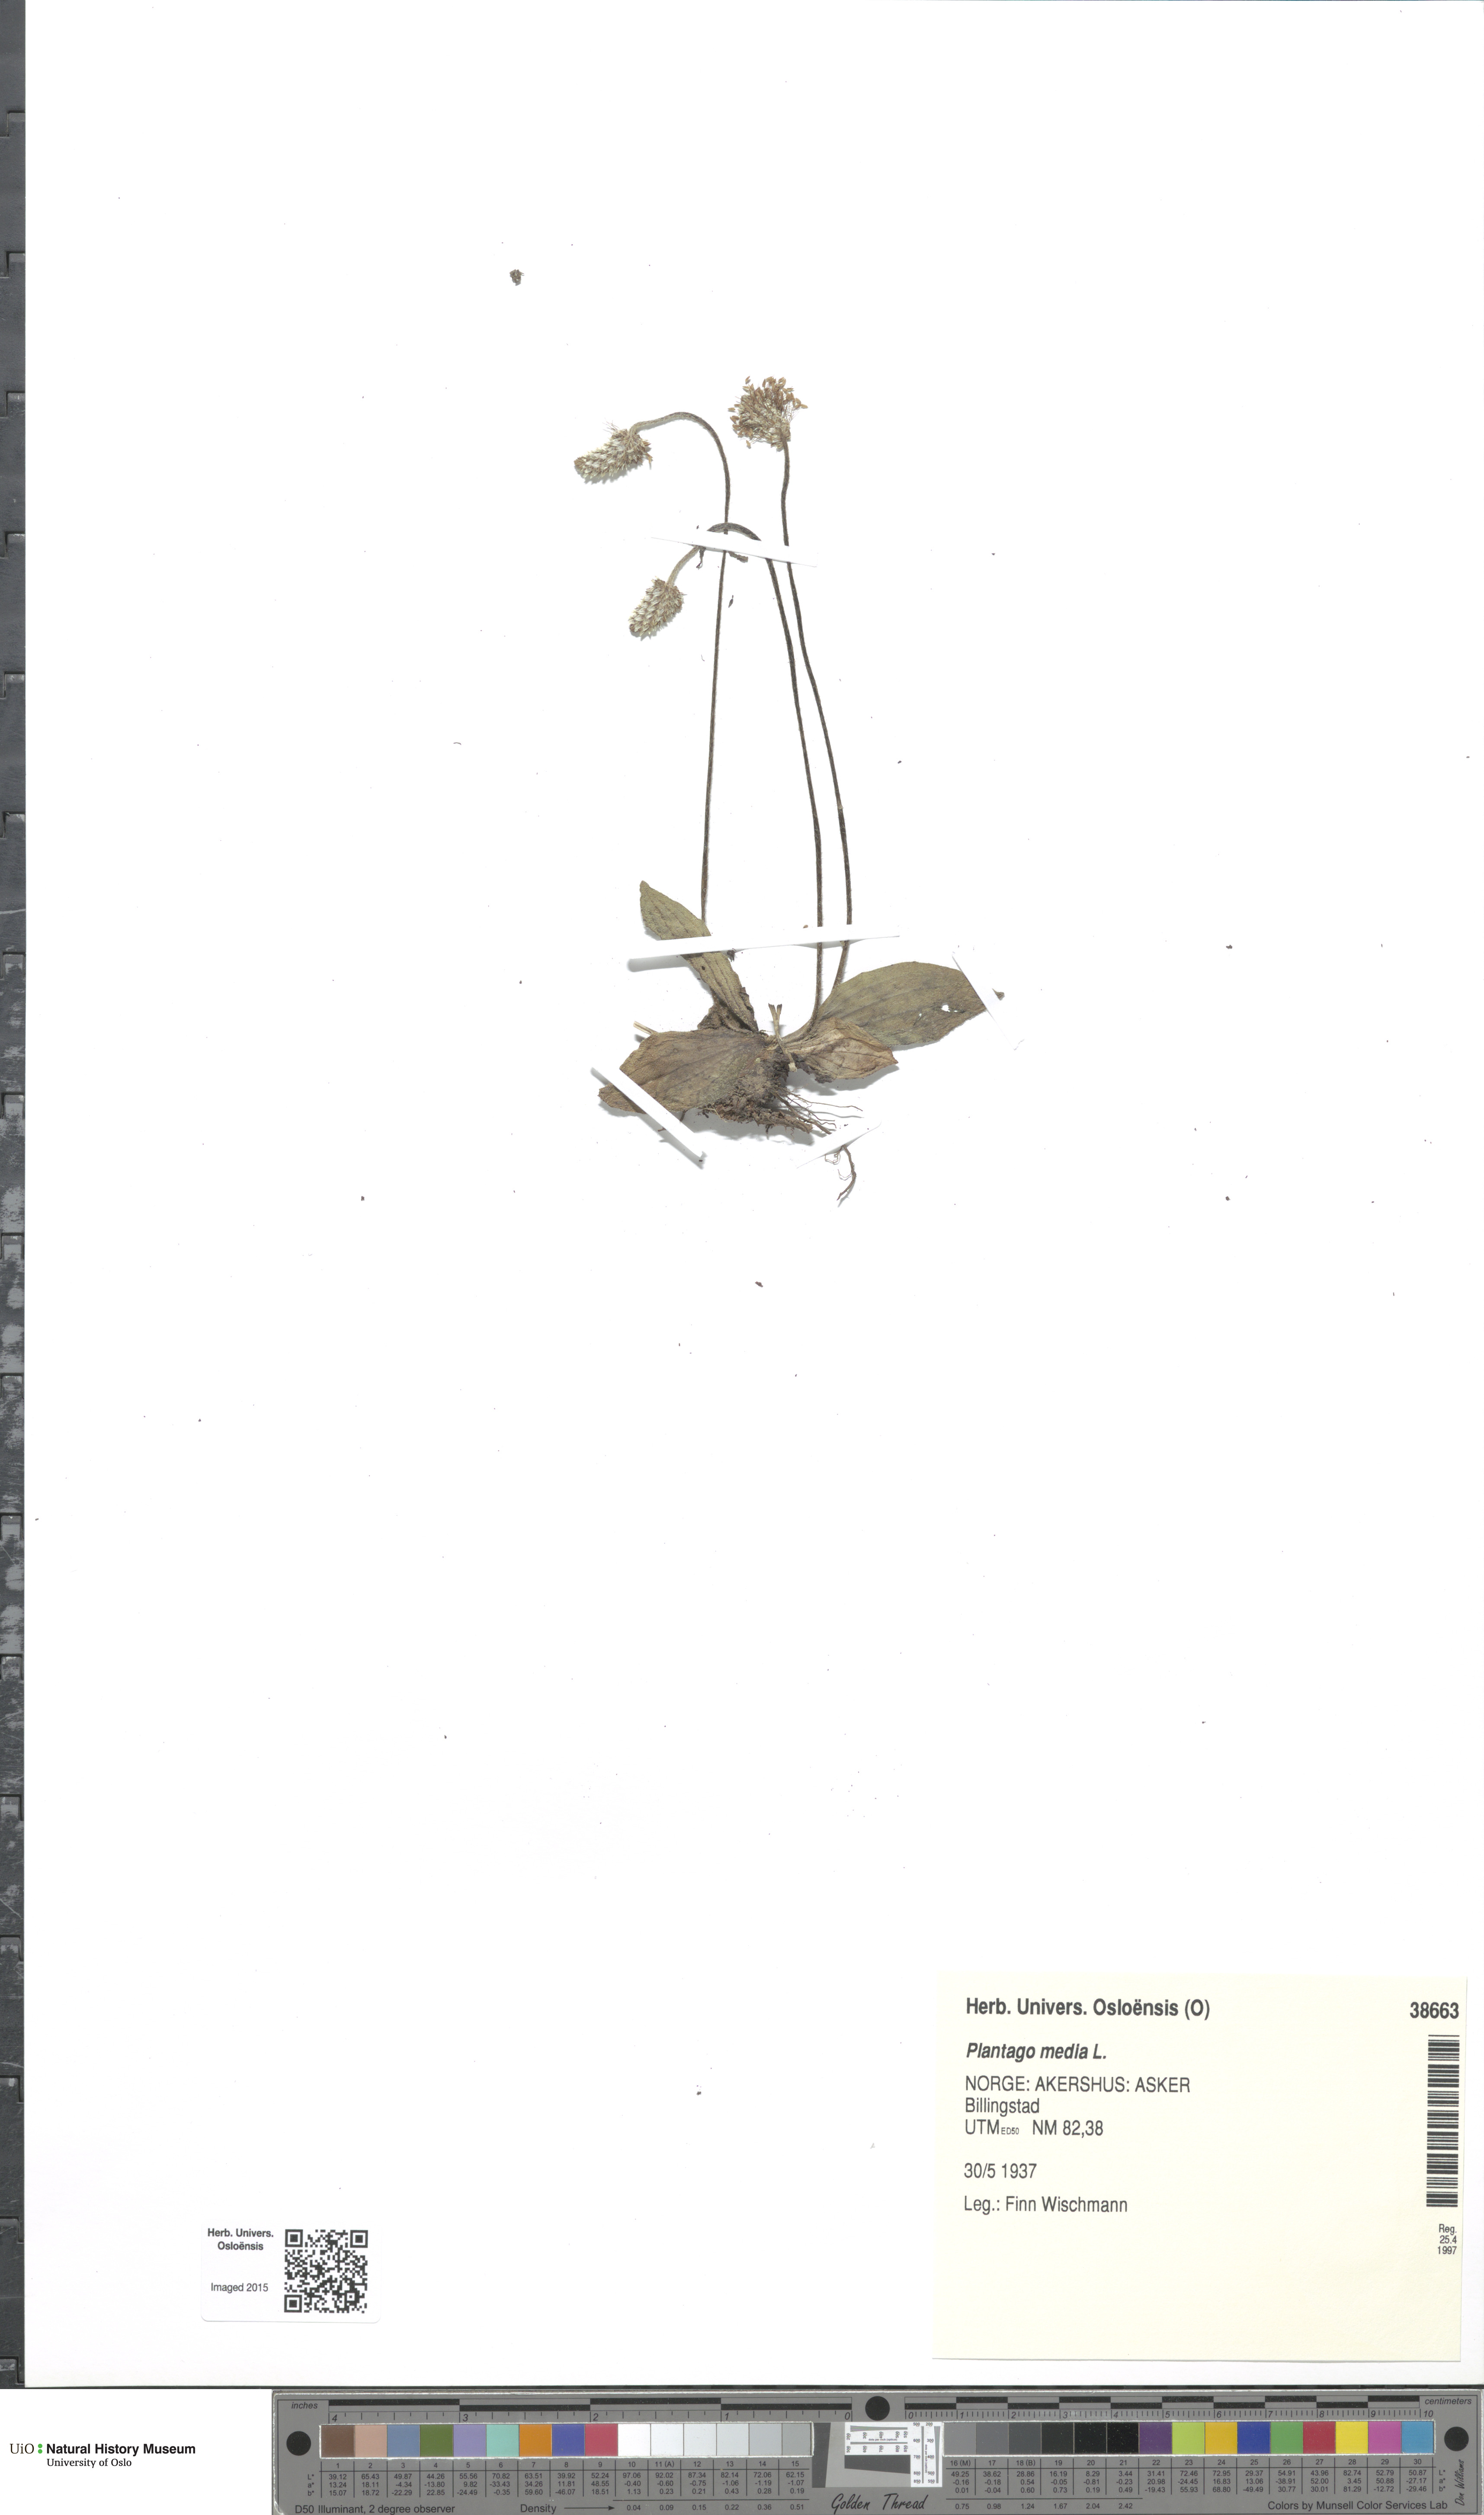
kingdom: Plantae
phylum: Tracheophyta
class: Magnoliopsida
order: Lamiales
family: Plantaginaceae
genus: Plantago
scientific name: Plantago media
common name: Hoary plantain
